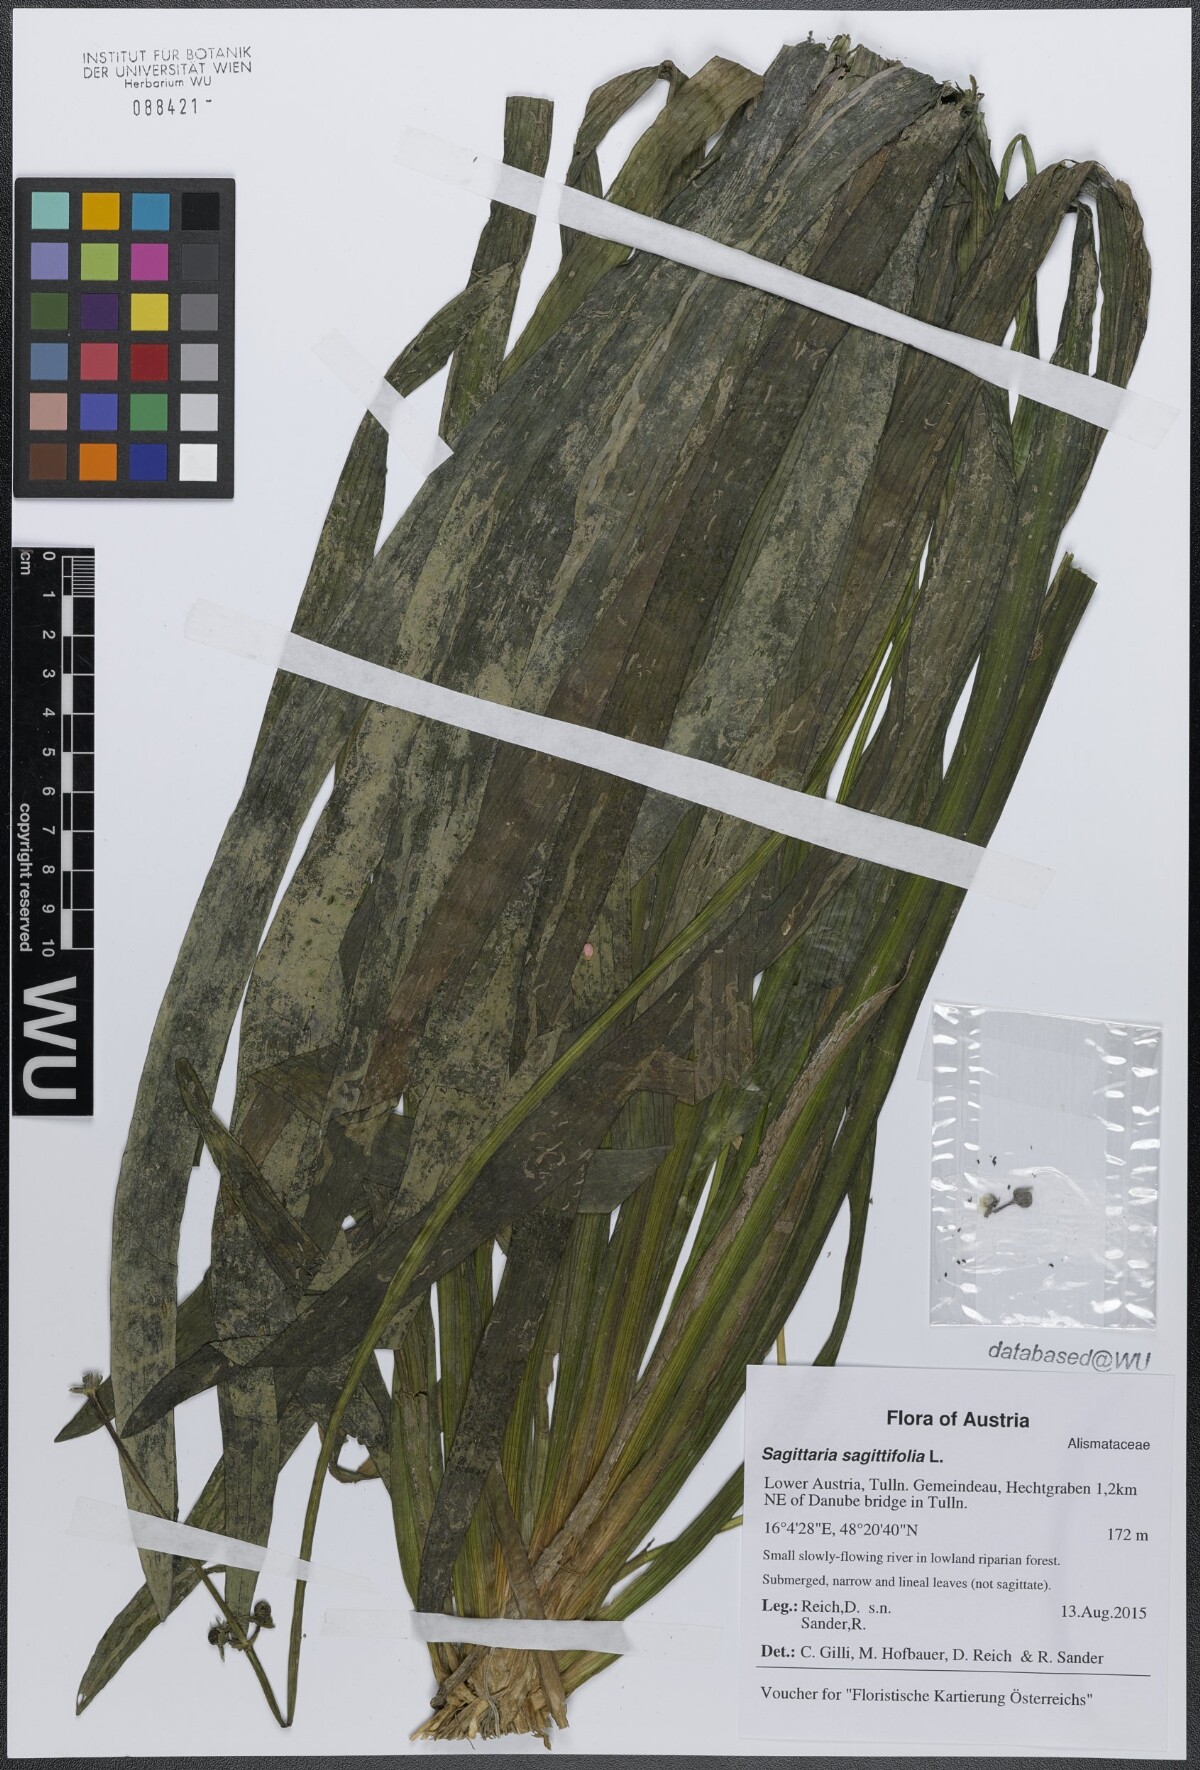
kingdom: Plantae
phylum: Tracheophyta
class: Liliopsida
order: Alismatales
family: Alismataceae
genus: Sagittaria
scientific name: Sagittaria sagittifolia
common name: Arrowhead
